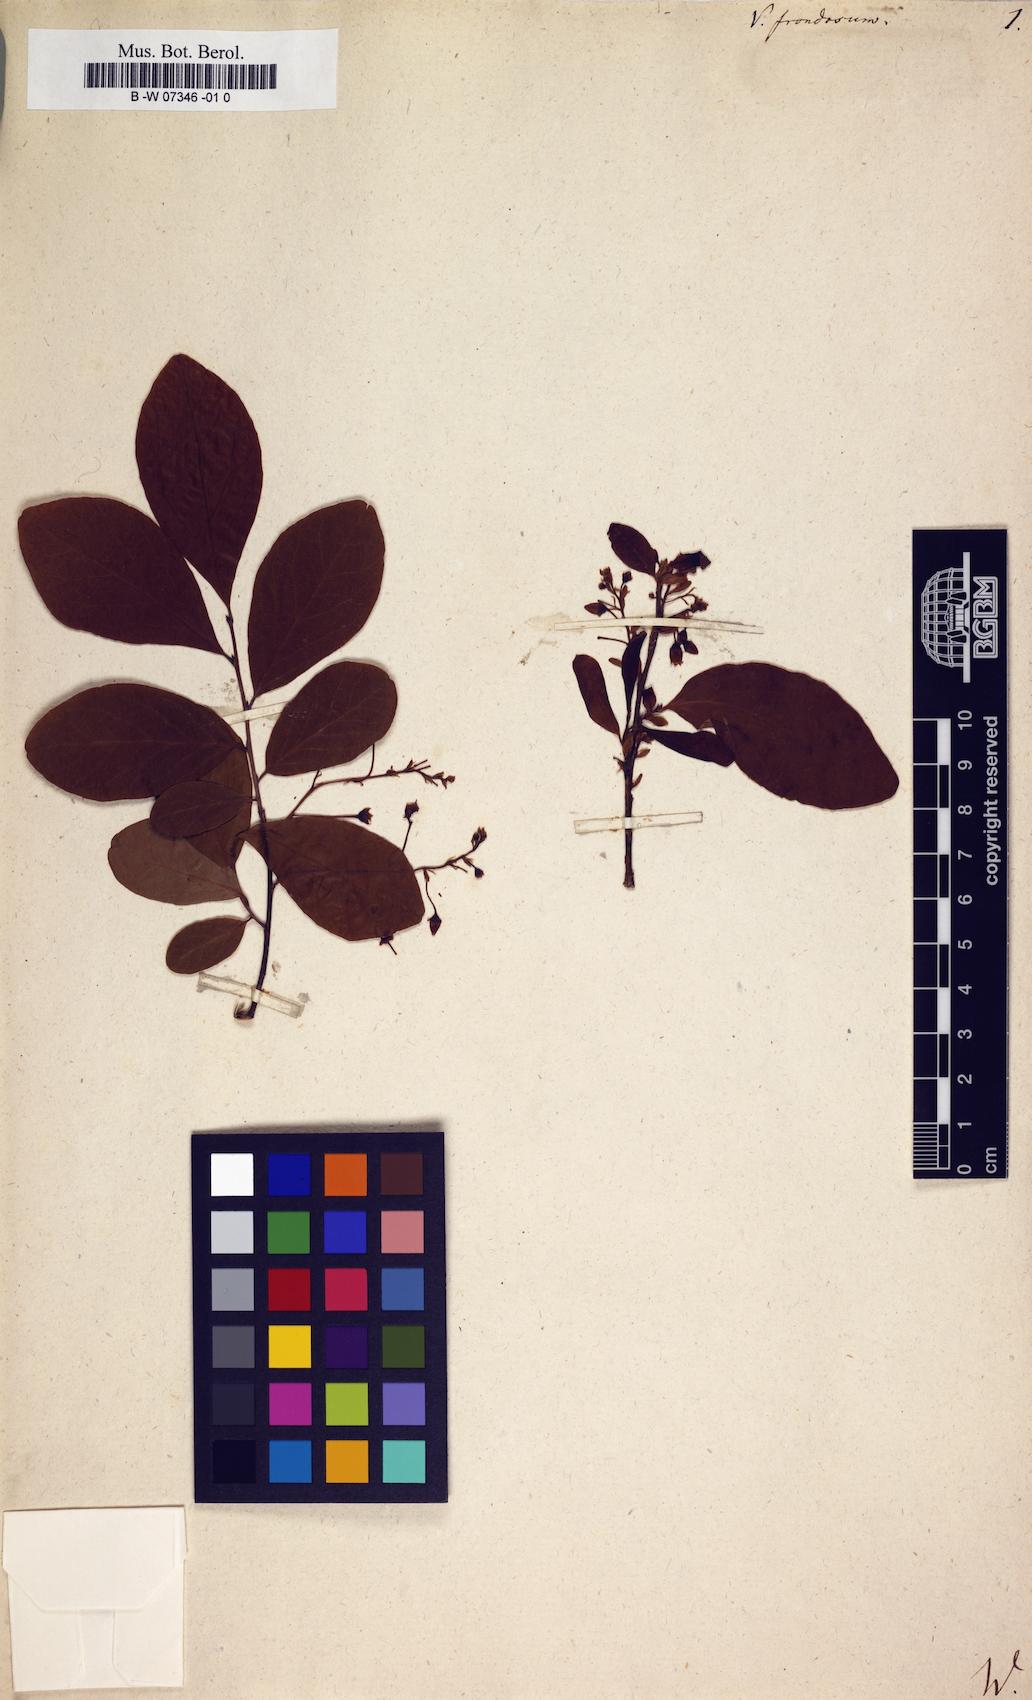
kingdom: Plantae
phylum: Tracheophyta
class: Magnoliopsida
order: Ericales
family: Ericaceae
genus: Gaylussacia
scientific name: Gaylussacia frondosa
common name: Dangleberry
